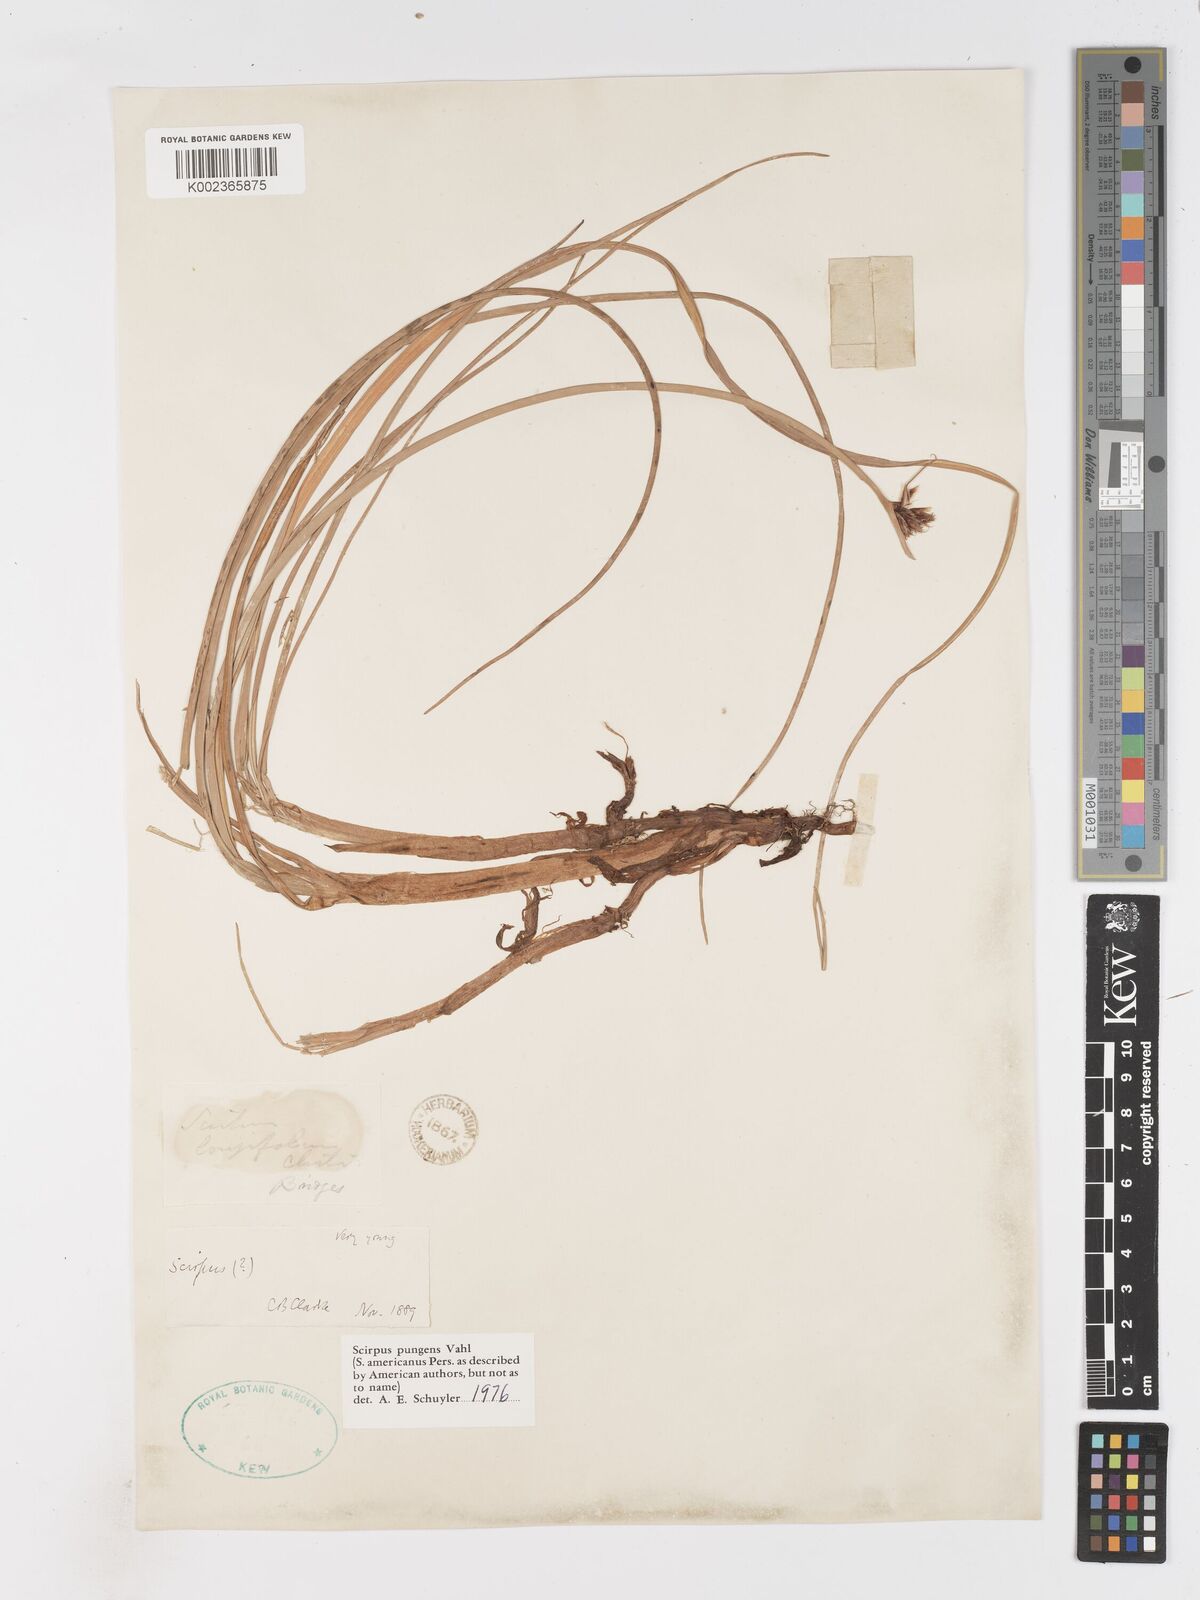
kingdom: Plantae
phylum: Tracheophyta
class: Liliopsida
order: Poales
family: Cyperaceae
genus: Schoenoplectus
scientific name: Schoenoplectus pungens
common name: Sharp club-rush
